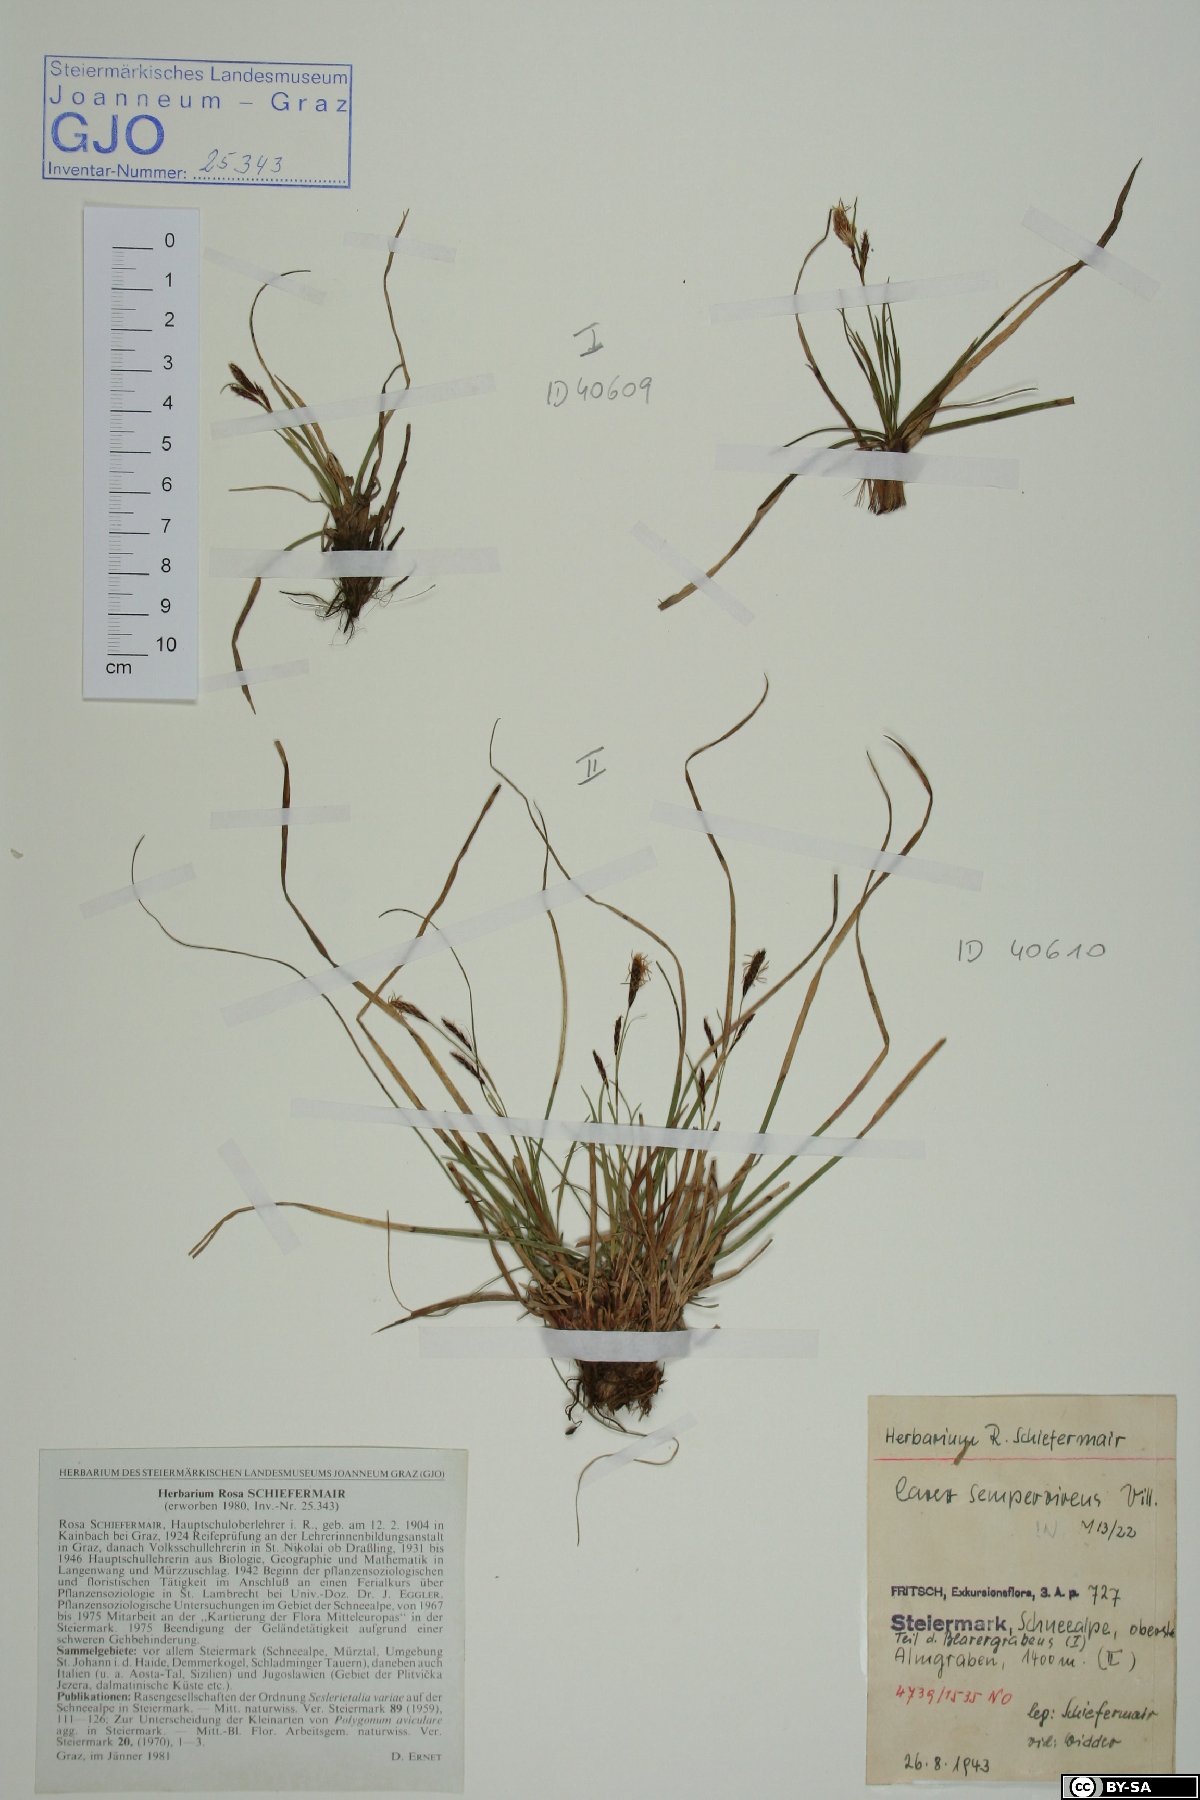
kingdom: Plantae
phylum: Tracheophyta
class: Liliopsida
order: Poales
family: Cyperaceae
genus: Carex
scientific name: Carex sempervirens
